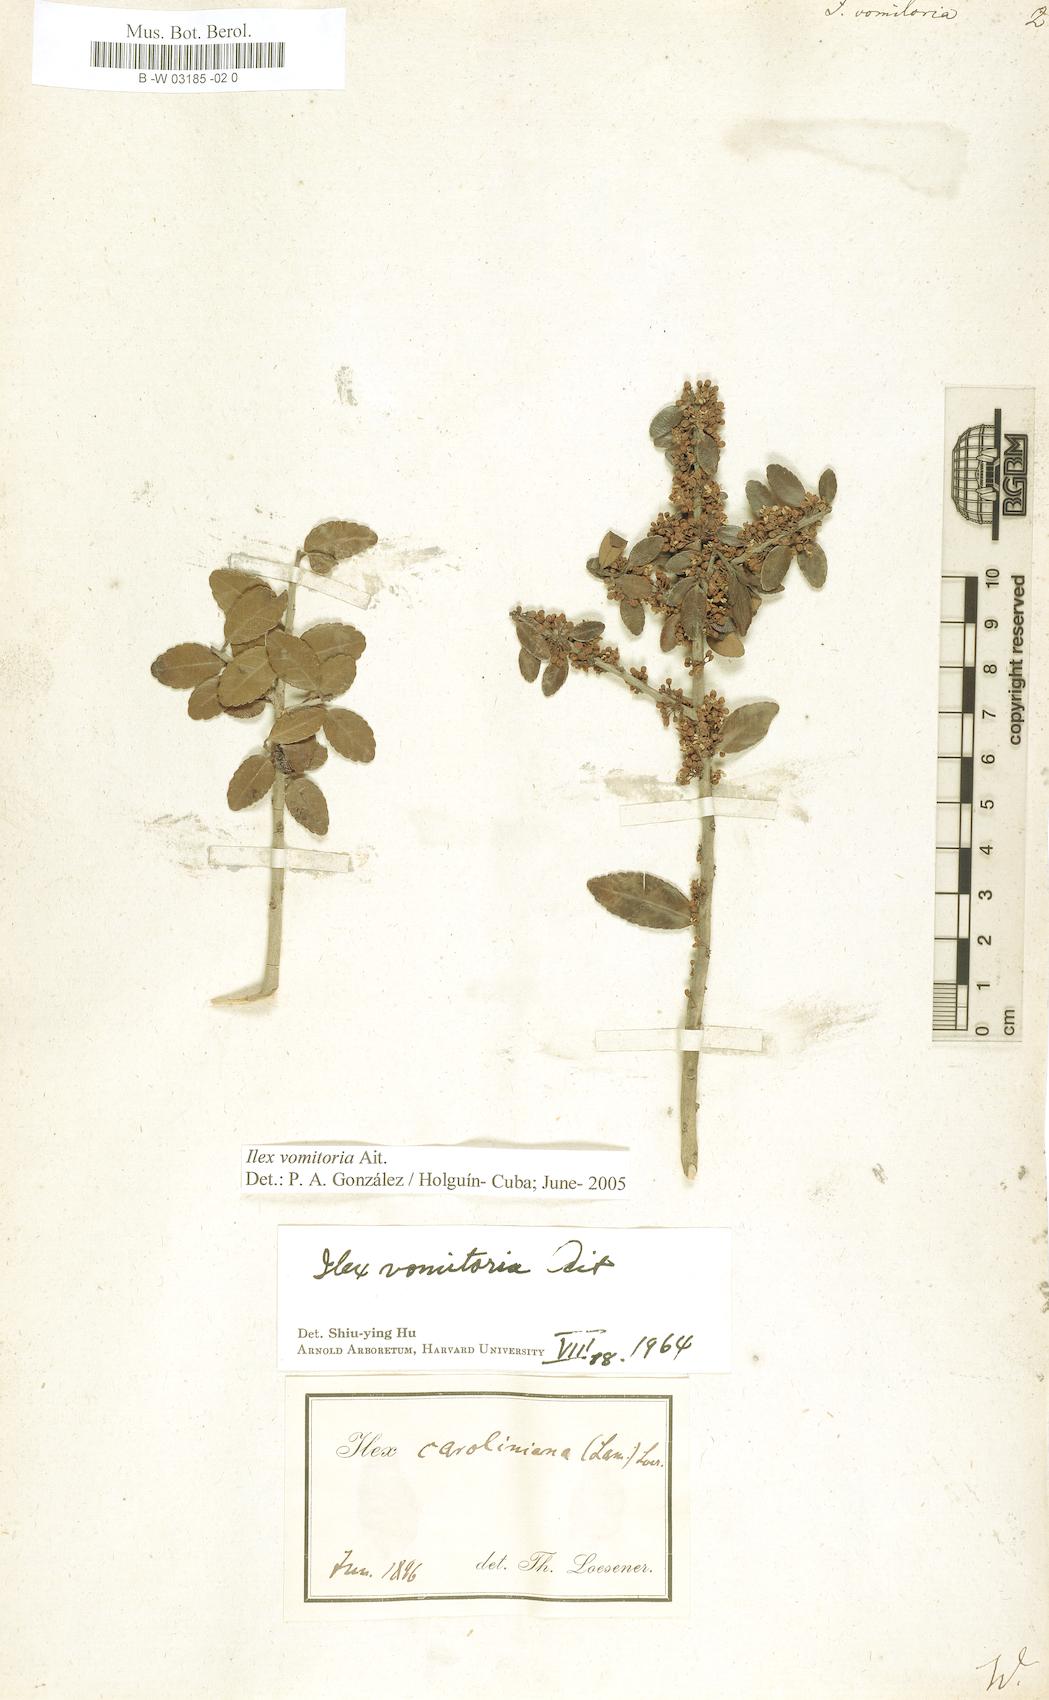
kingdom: Plantae
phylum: Tracheophyta
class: Magnoliopsida
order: Aquifoliales
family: Aquifoliaceae
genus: Ilex
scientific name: Ilex vomitoria
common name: Yaupon holly
